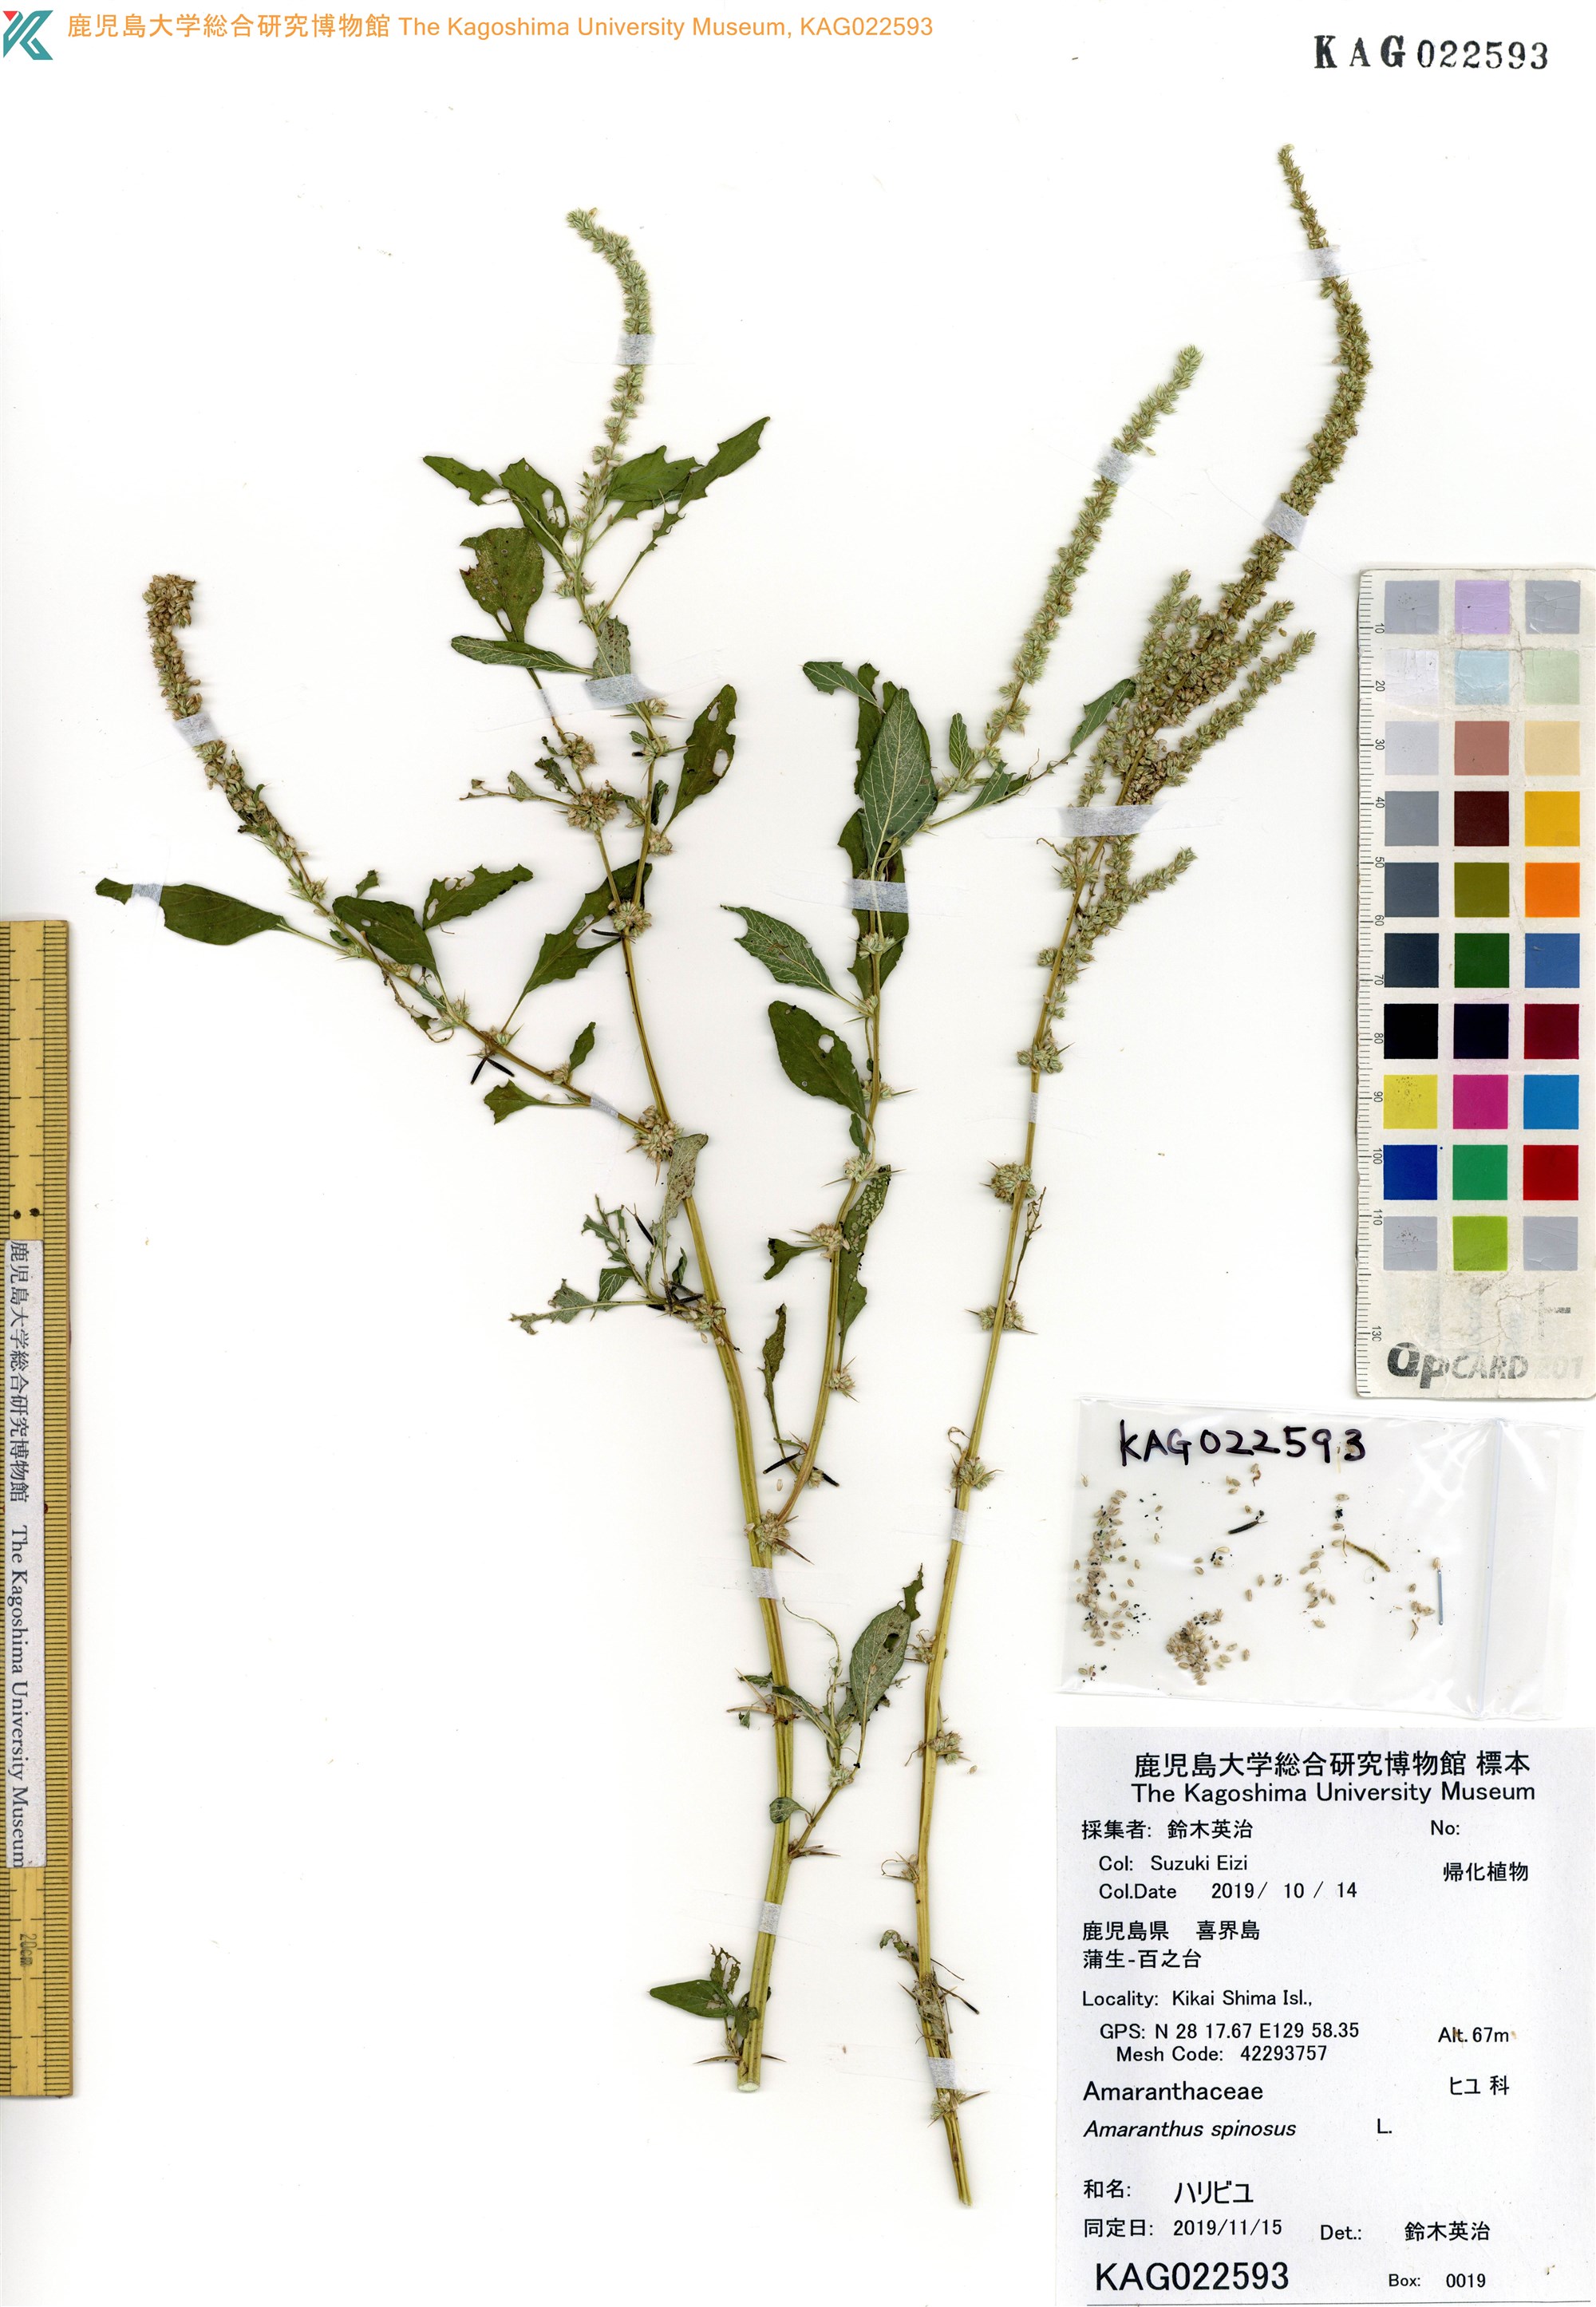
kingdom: Plantae
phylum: Tracheophyta
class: Magnoliopsida
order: Caryophyllales
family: Amaranthaceae
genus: Amaranthus
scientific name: Amaranthus spinosus
